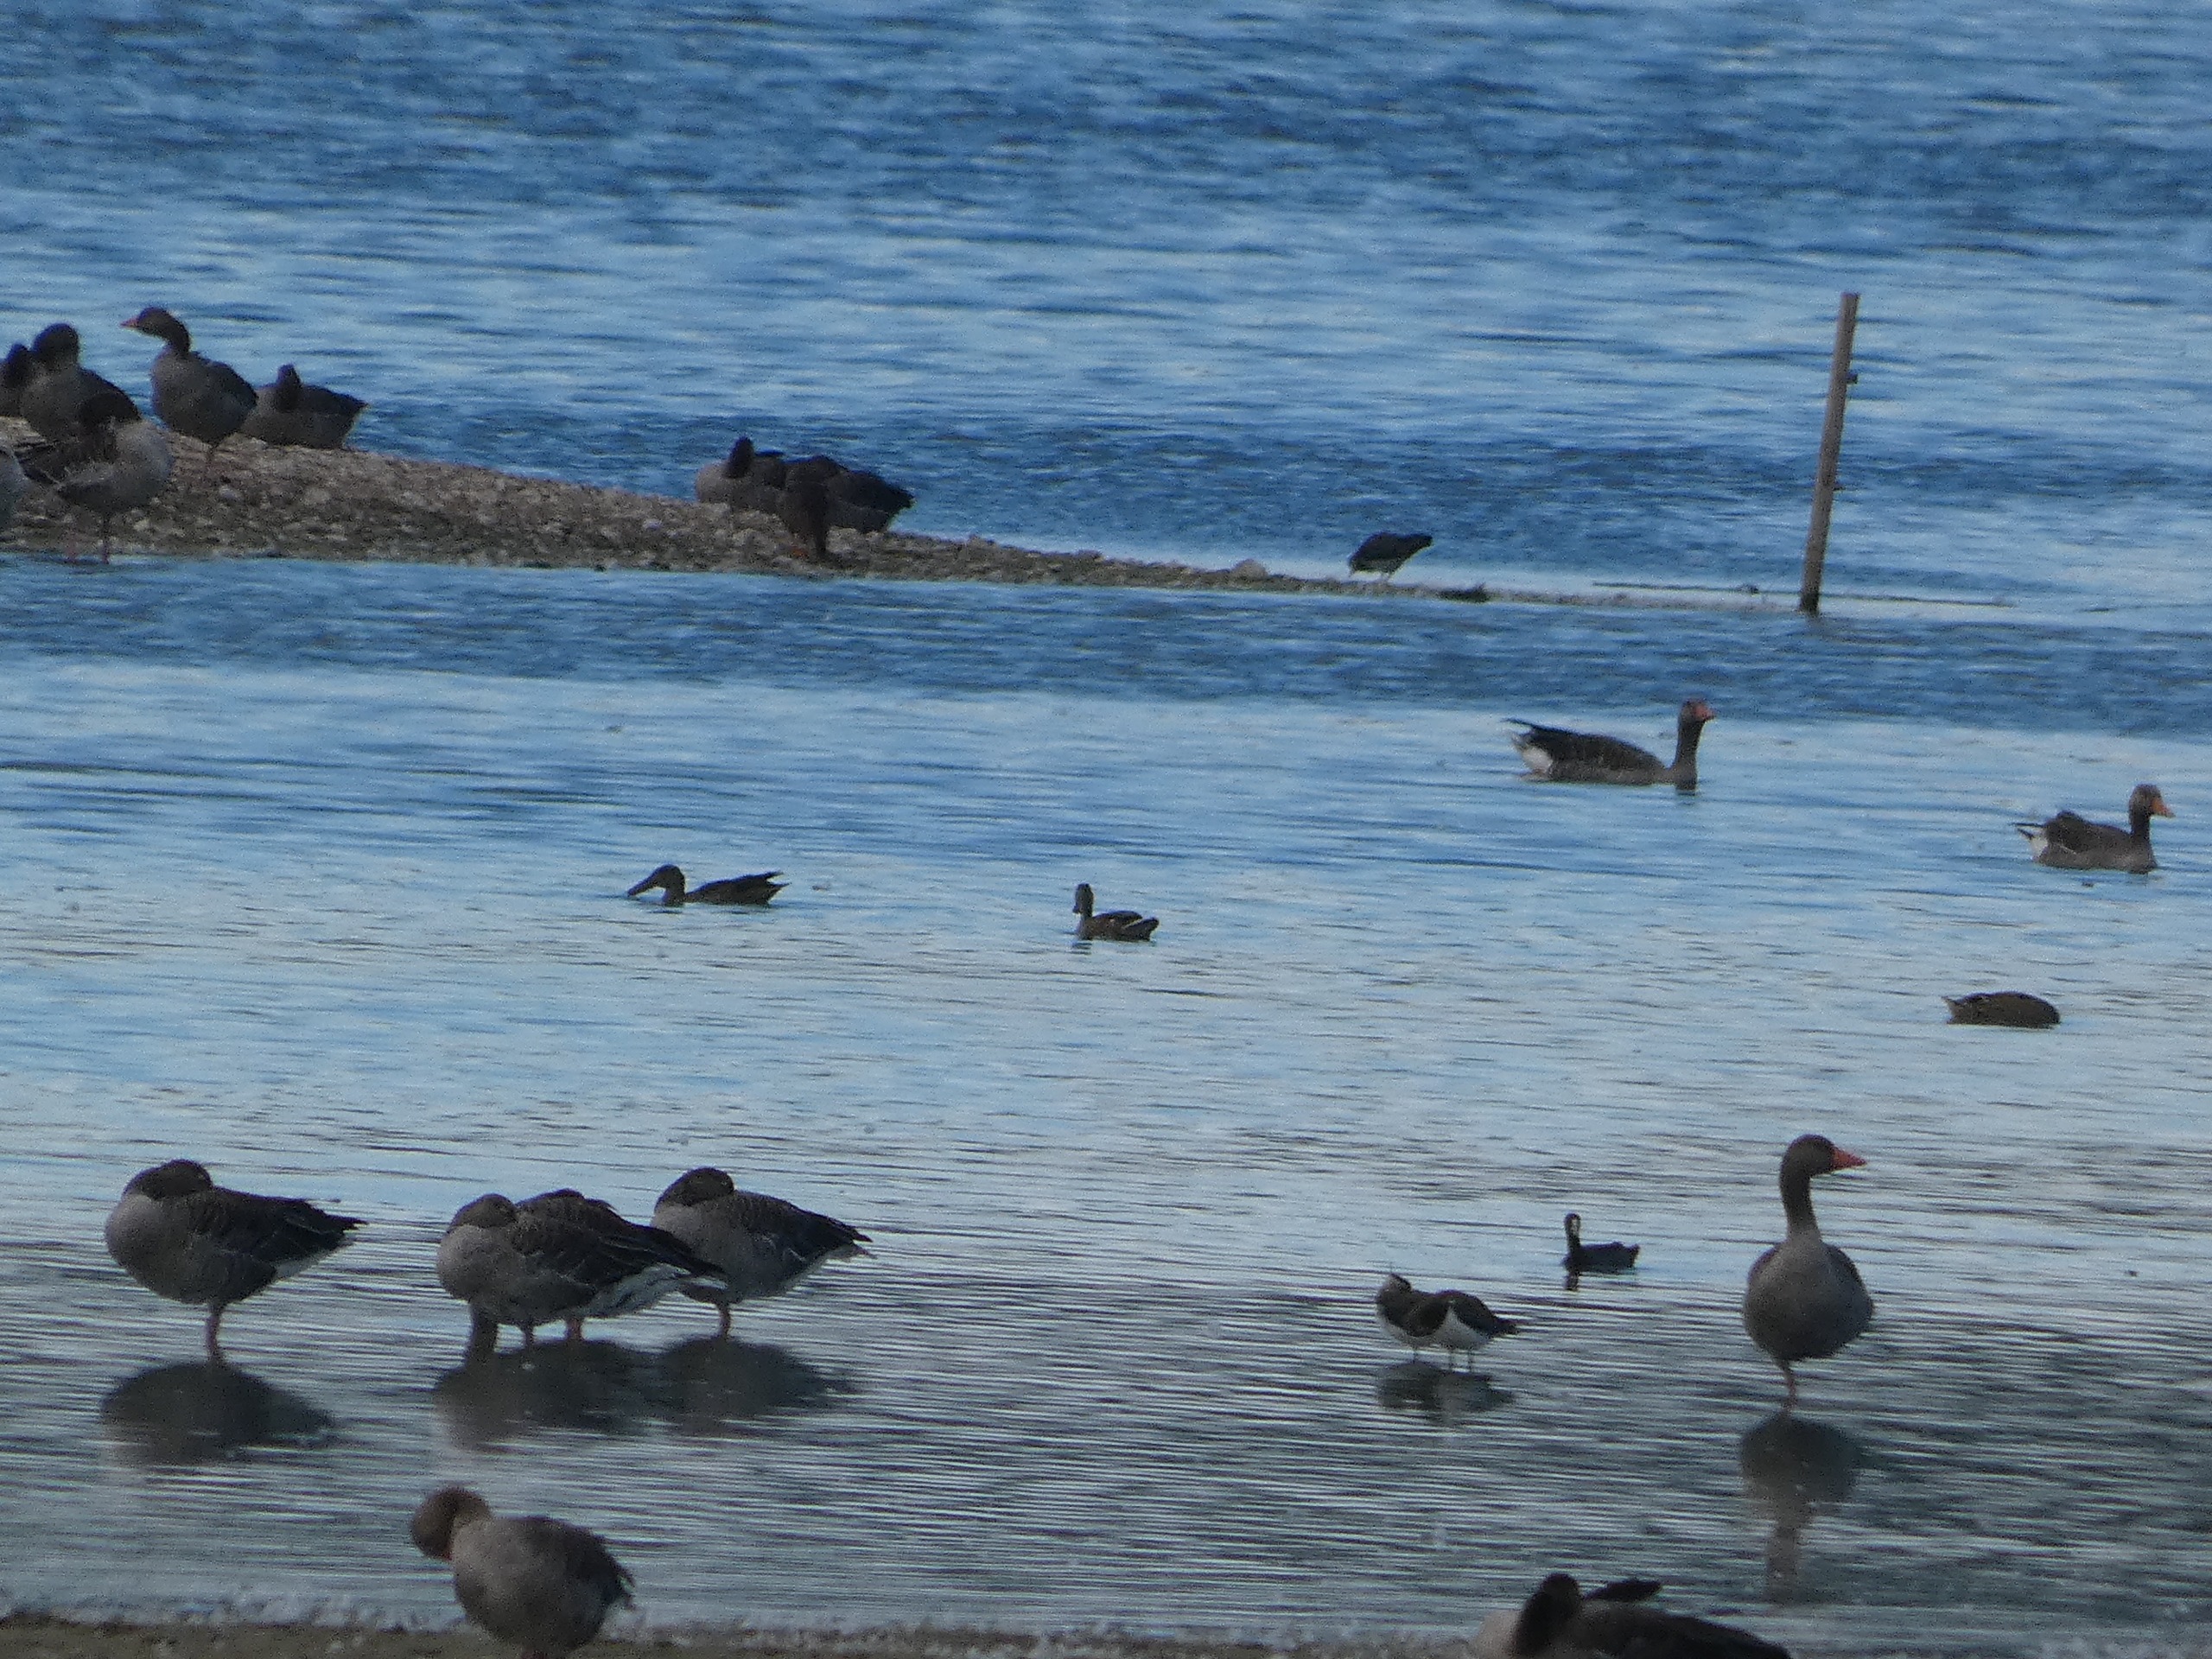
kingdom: Animalia
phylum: Chordata
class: Aves
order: Anseriformes
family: Anatidae
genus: Spatula
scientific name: Spatula clypeata
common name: Skeand
